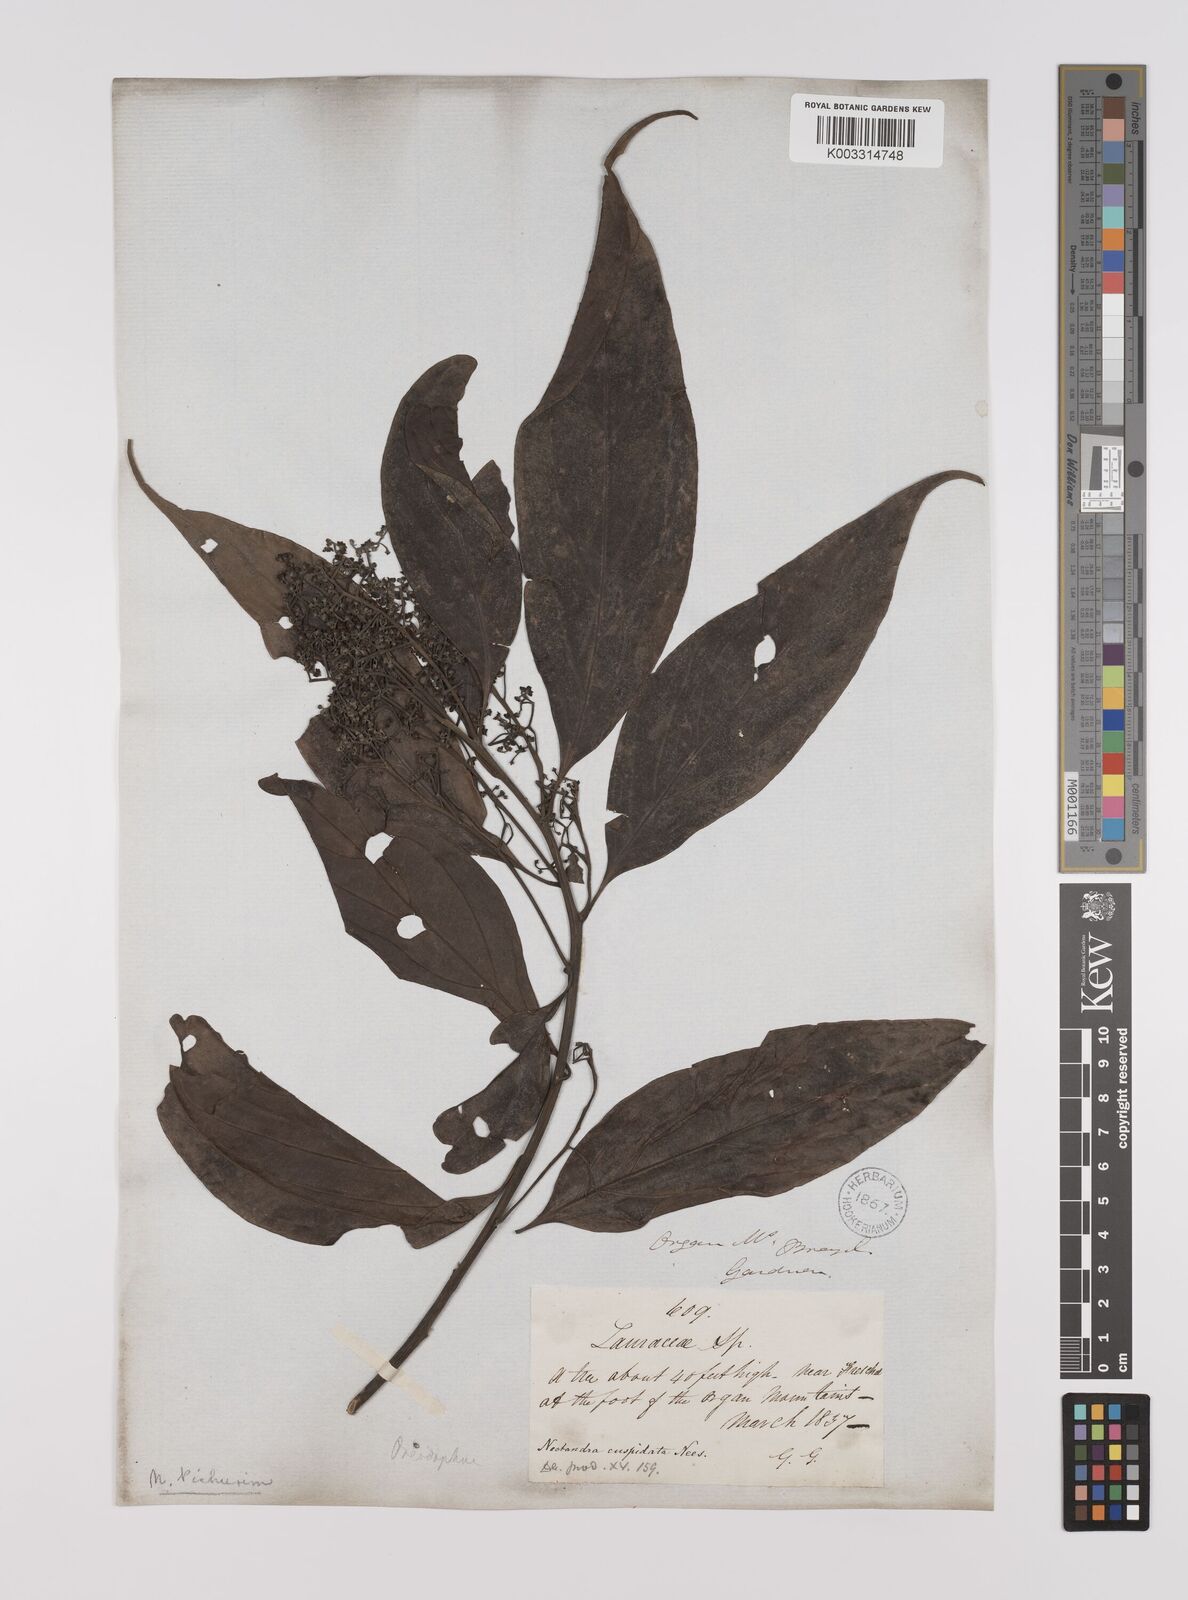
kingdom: Plantae
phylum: Tracheophyta
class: Magnoliopsida
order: Laurales
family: Lauraceae
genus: Nectandra
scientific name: Nectandra cuspidata
